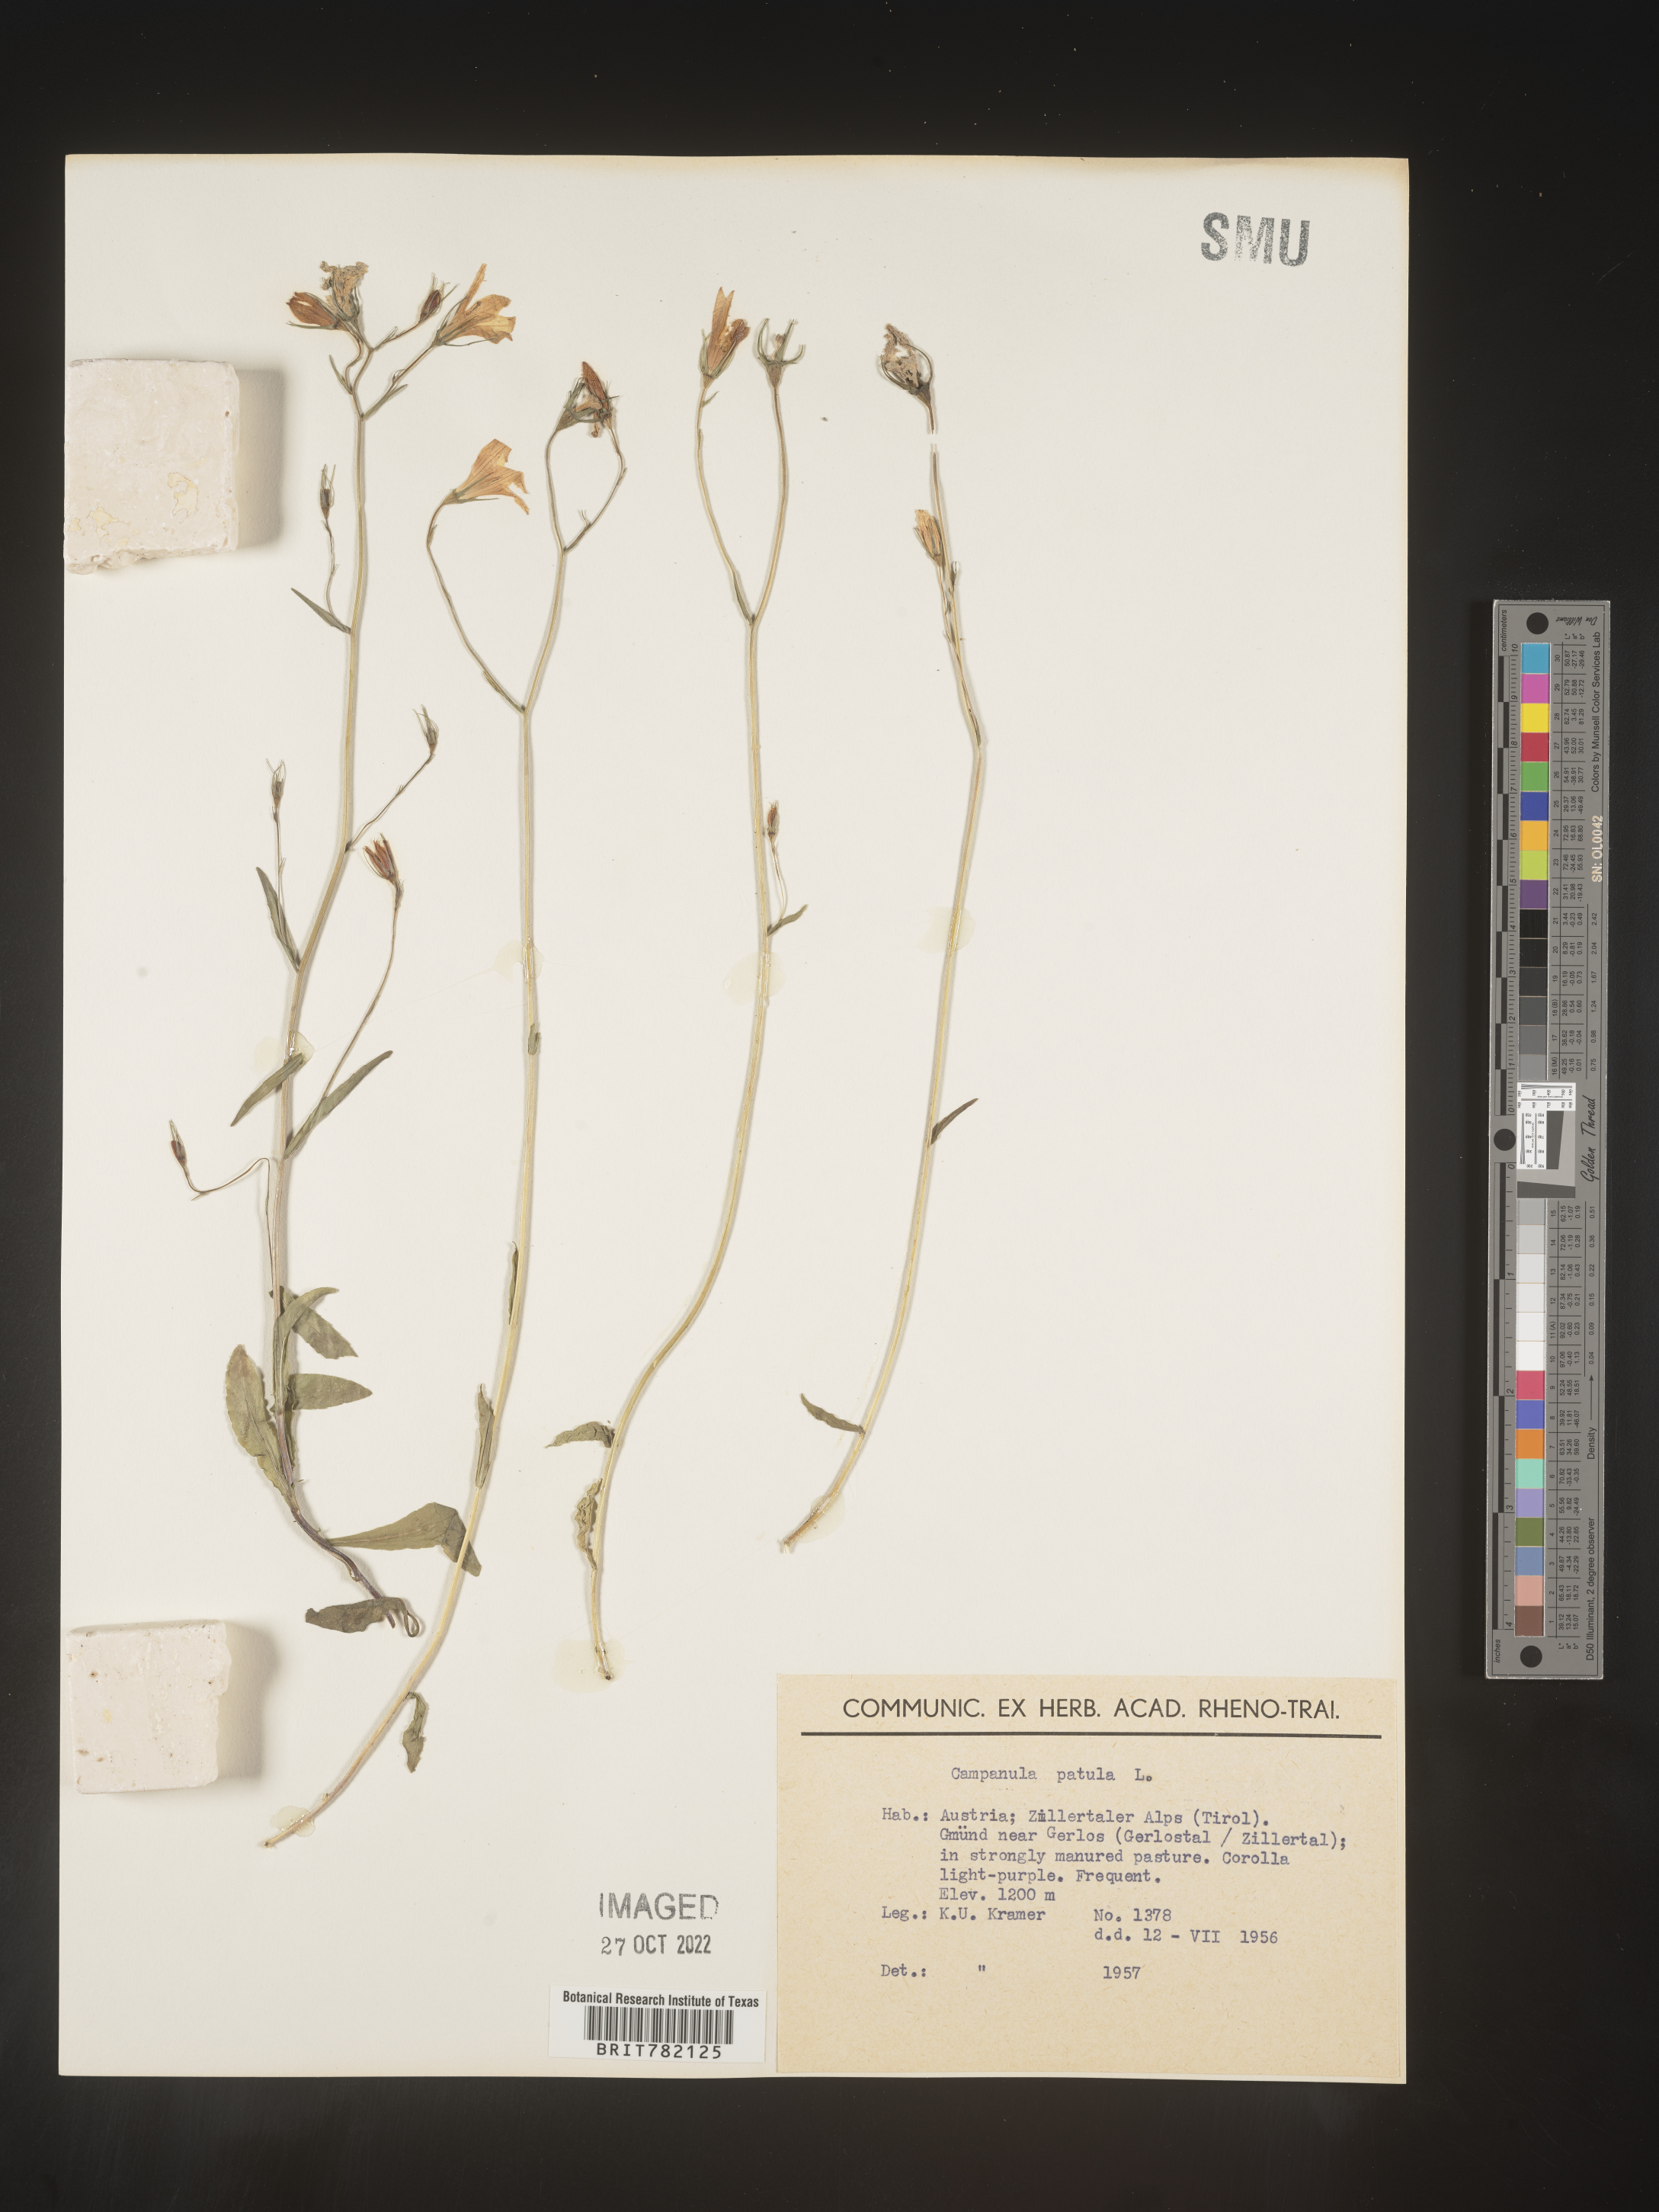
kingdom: Plantae
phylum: Tracheophyta
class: Magnoliopsida
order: Asterales
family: Campanulaceae
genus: Campanula
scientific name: Campanula
